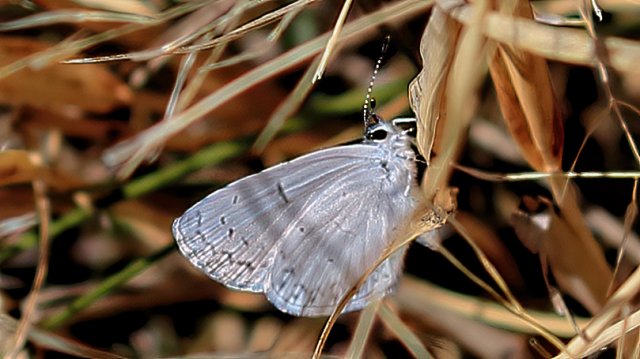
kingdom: Animalia
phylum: Arthropoda
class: Insecta
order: Lepidoptera
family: Lycaenidae
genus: Celastrina
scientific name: Celastrina ladon
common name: Spring Azure
